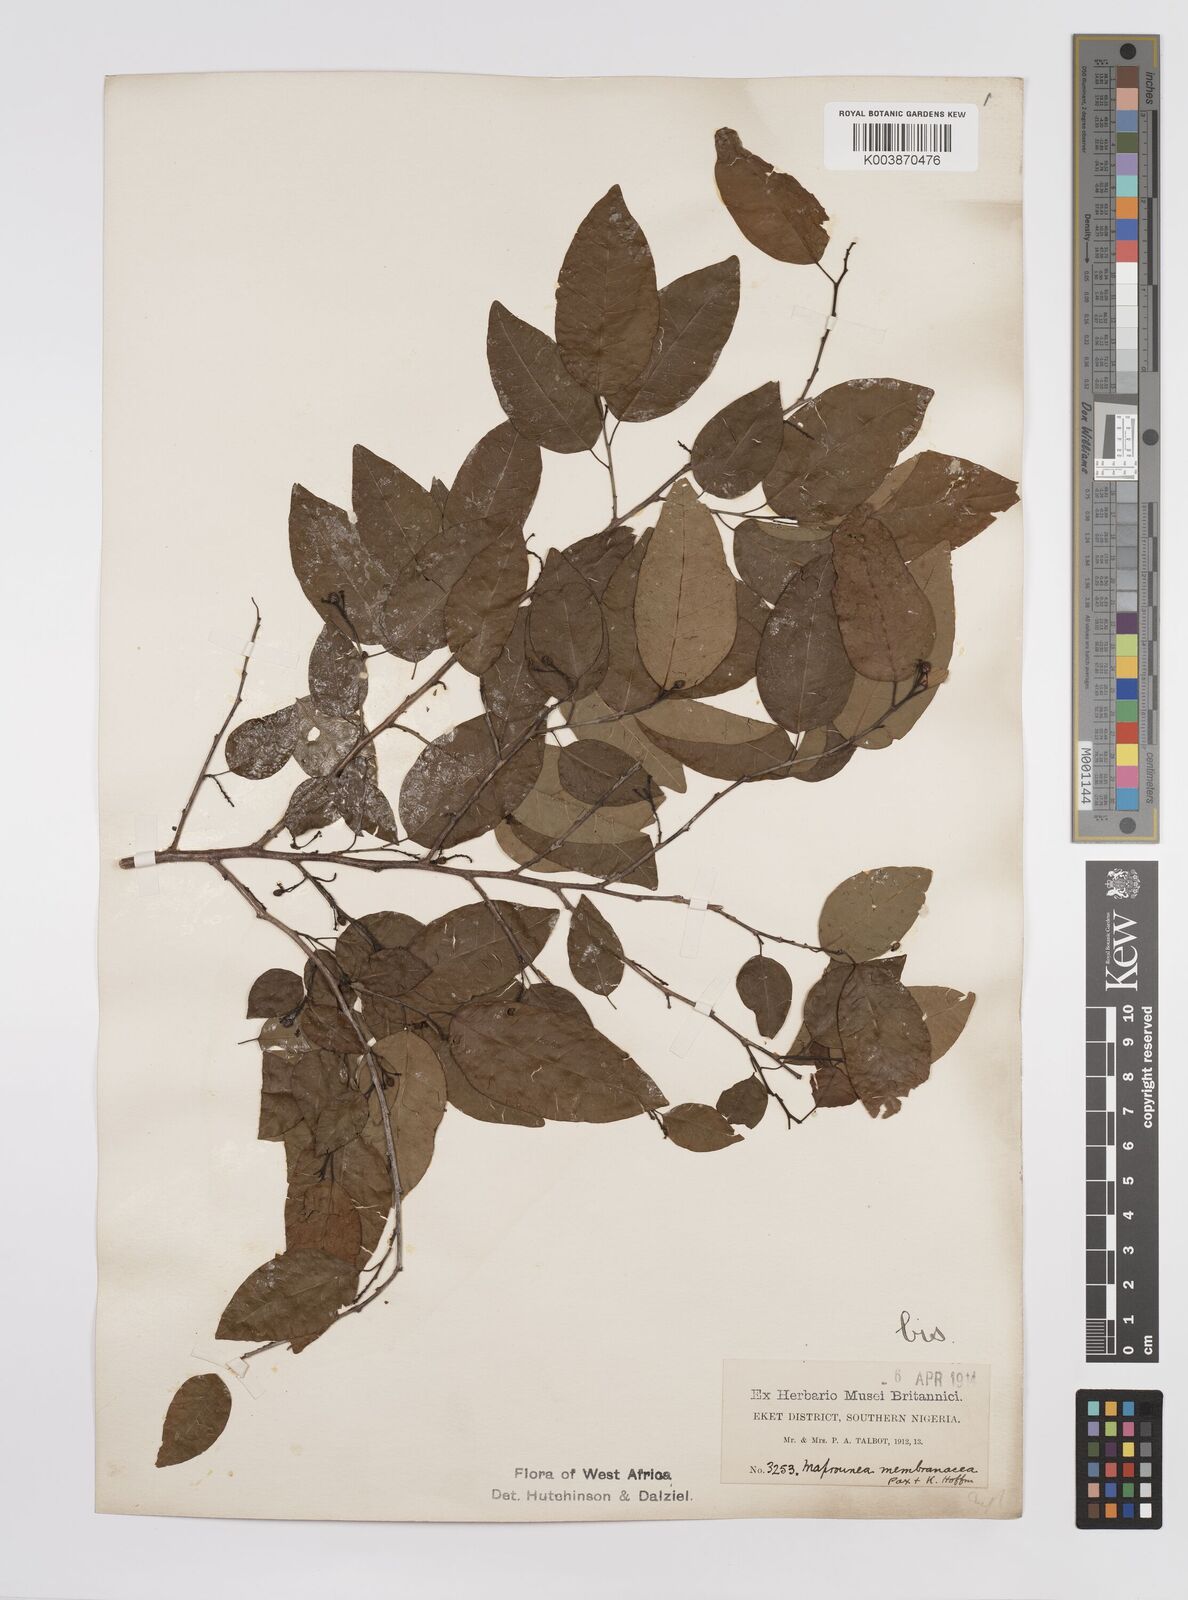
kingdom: Plantae
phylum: Tracheophyta
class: Magnoliopsida
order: Malpighiales
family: Euphorbiaceae
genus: Maprounea
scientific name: Maprounea membranacea
